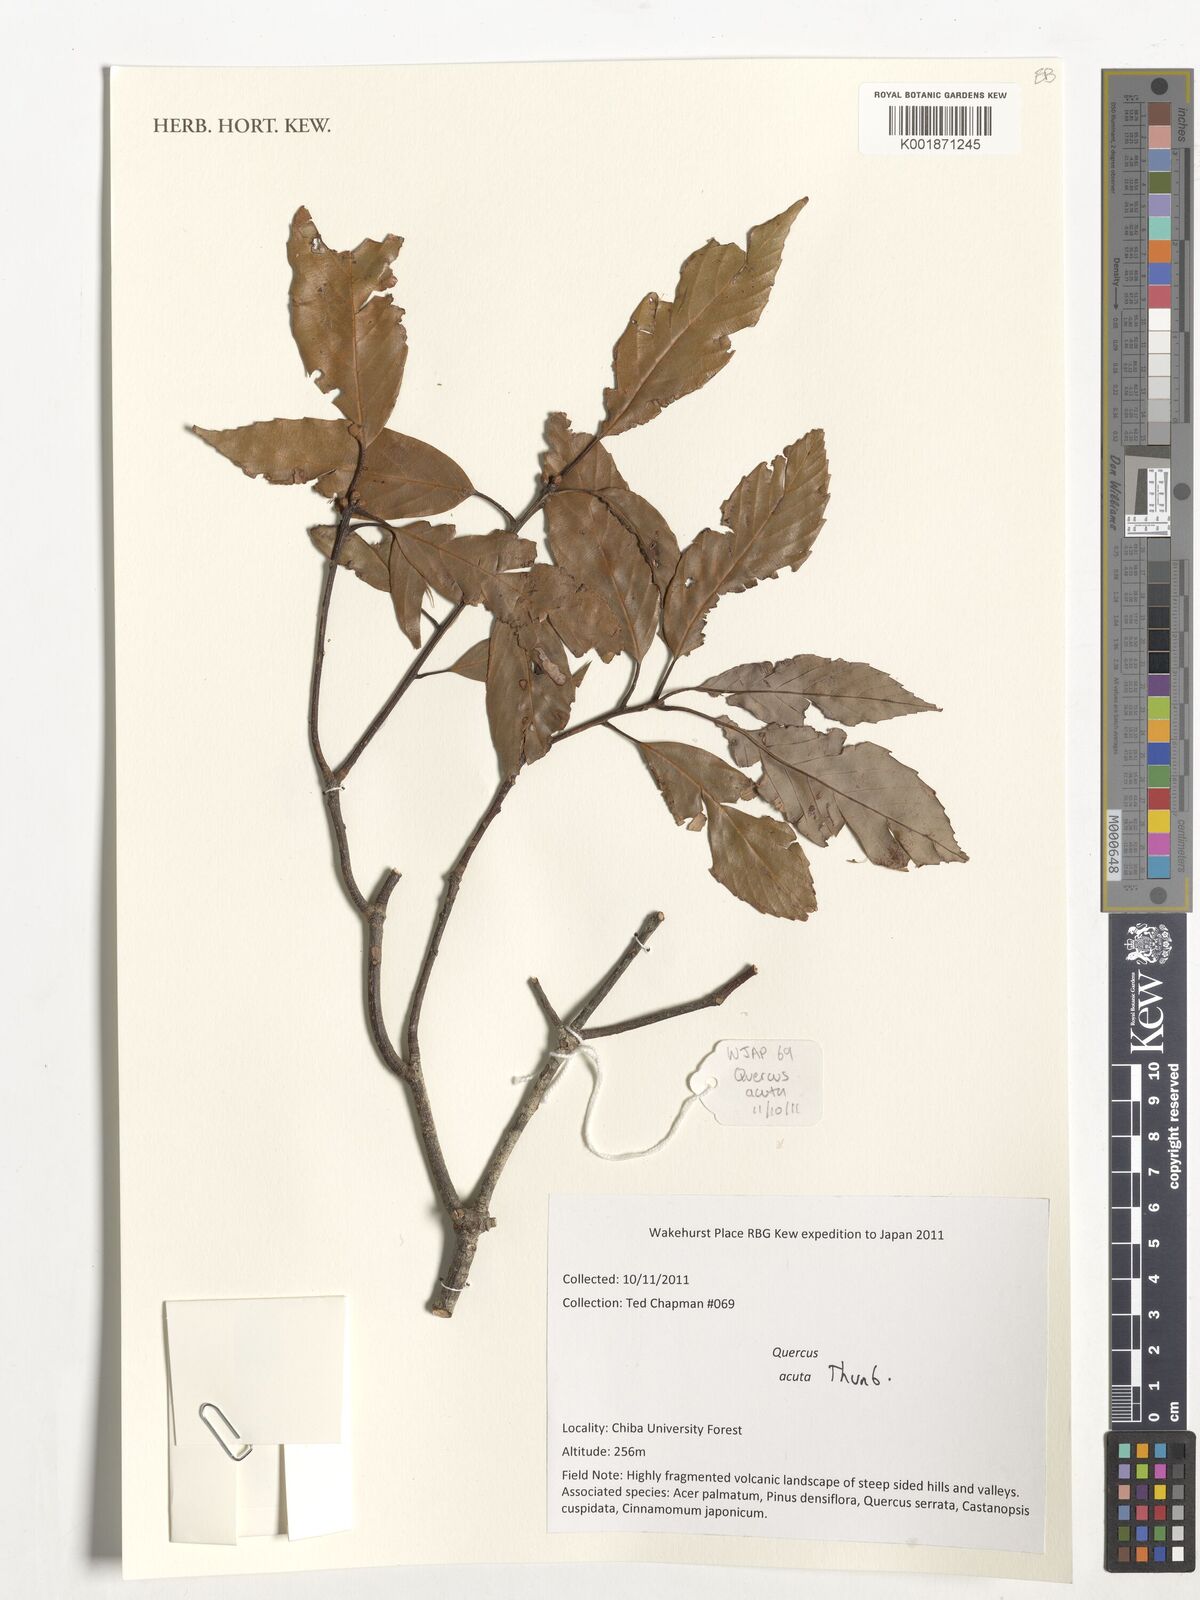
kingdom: Plantae
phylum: Tracheophyta
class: Magnoliopsida
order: Fagales
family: Fagaceae
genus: Quercus
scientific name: Quercus acuta
